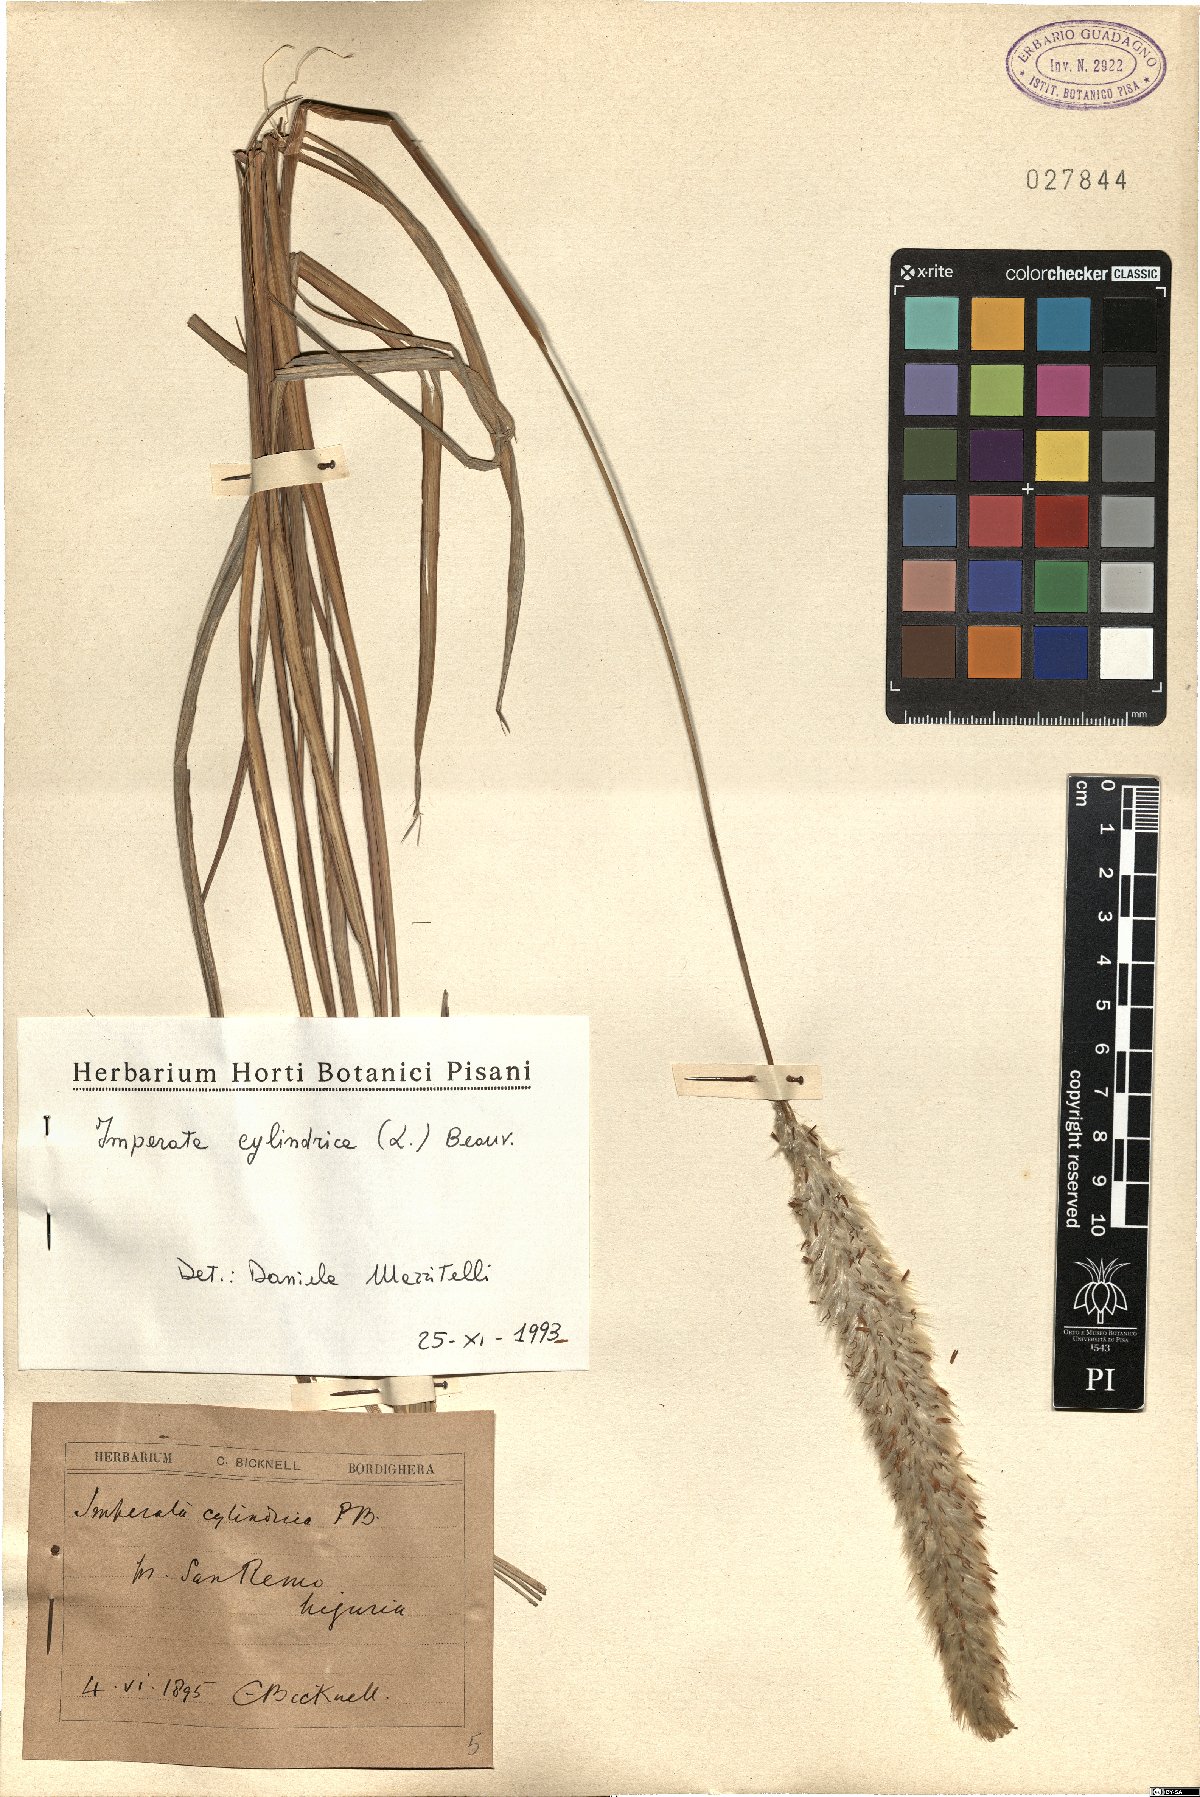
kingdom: Plantae
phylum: Tracheophyta
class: Liliopsida
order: Poales
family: Poaceae
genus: Imperata
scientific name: Imperata cylindrica
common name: Cogongrass
